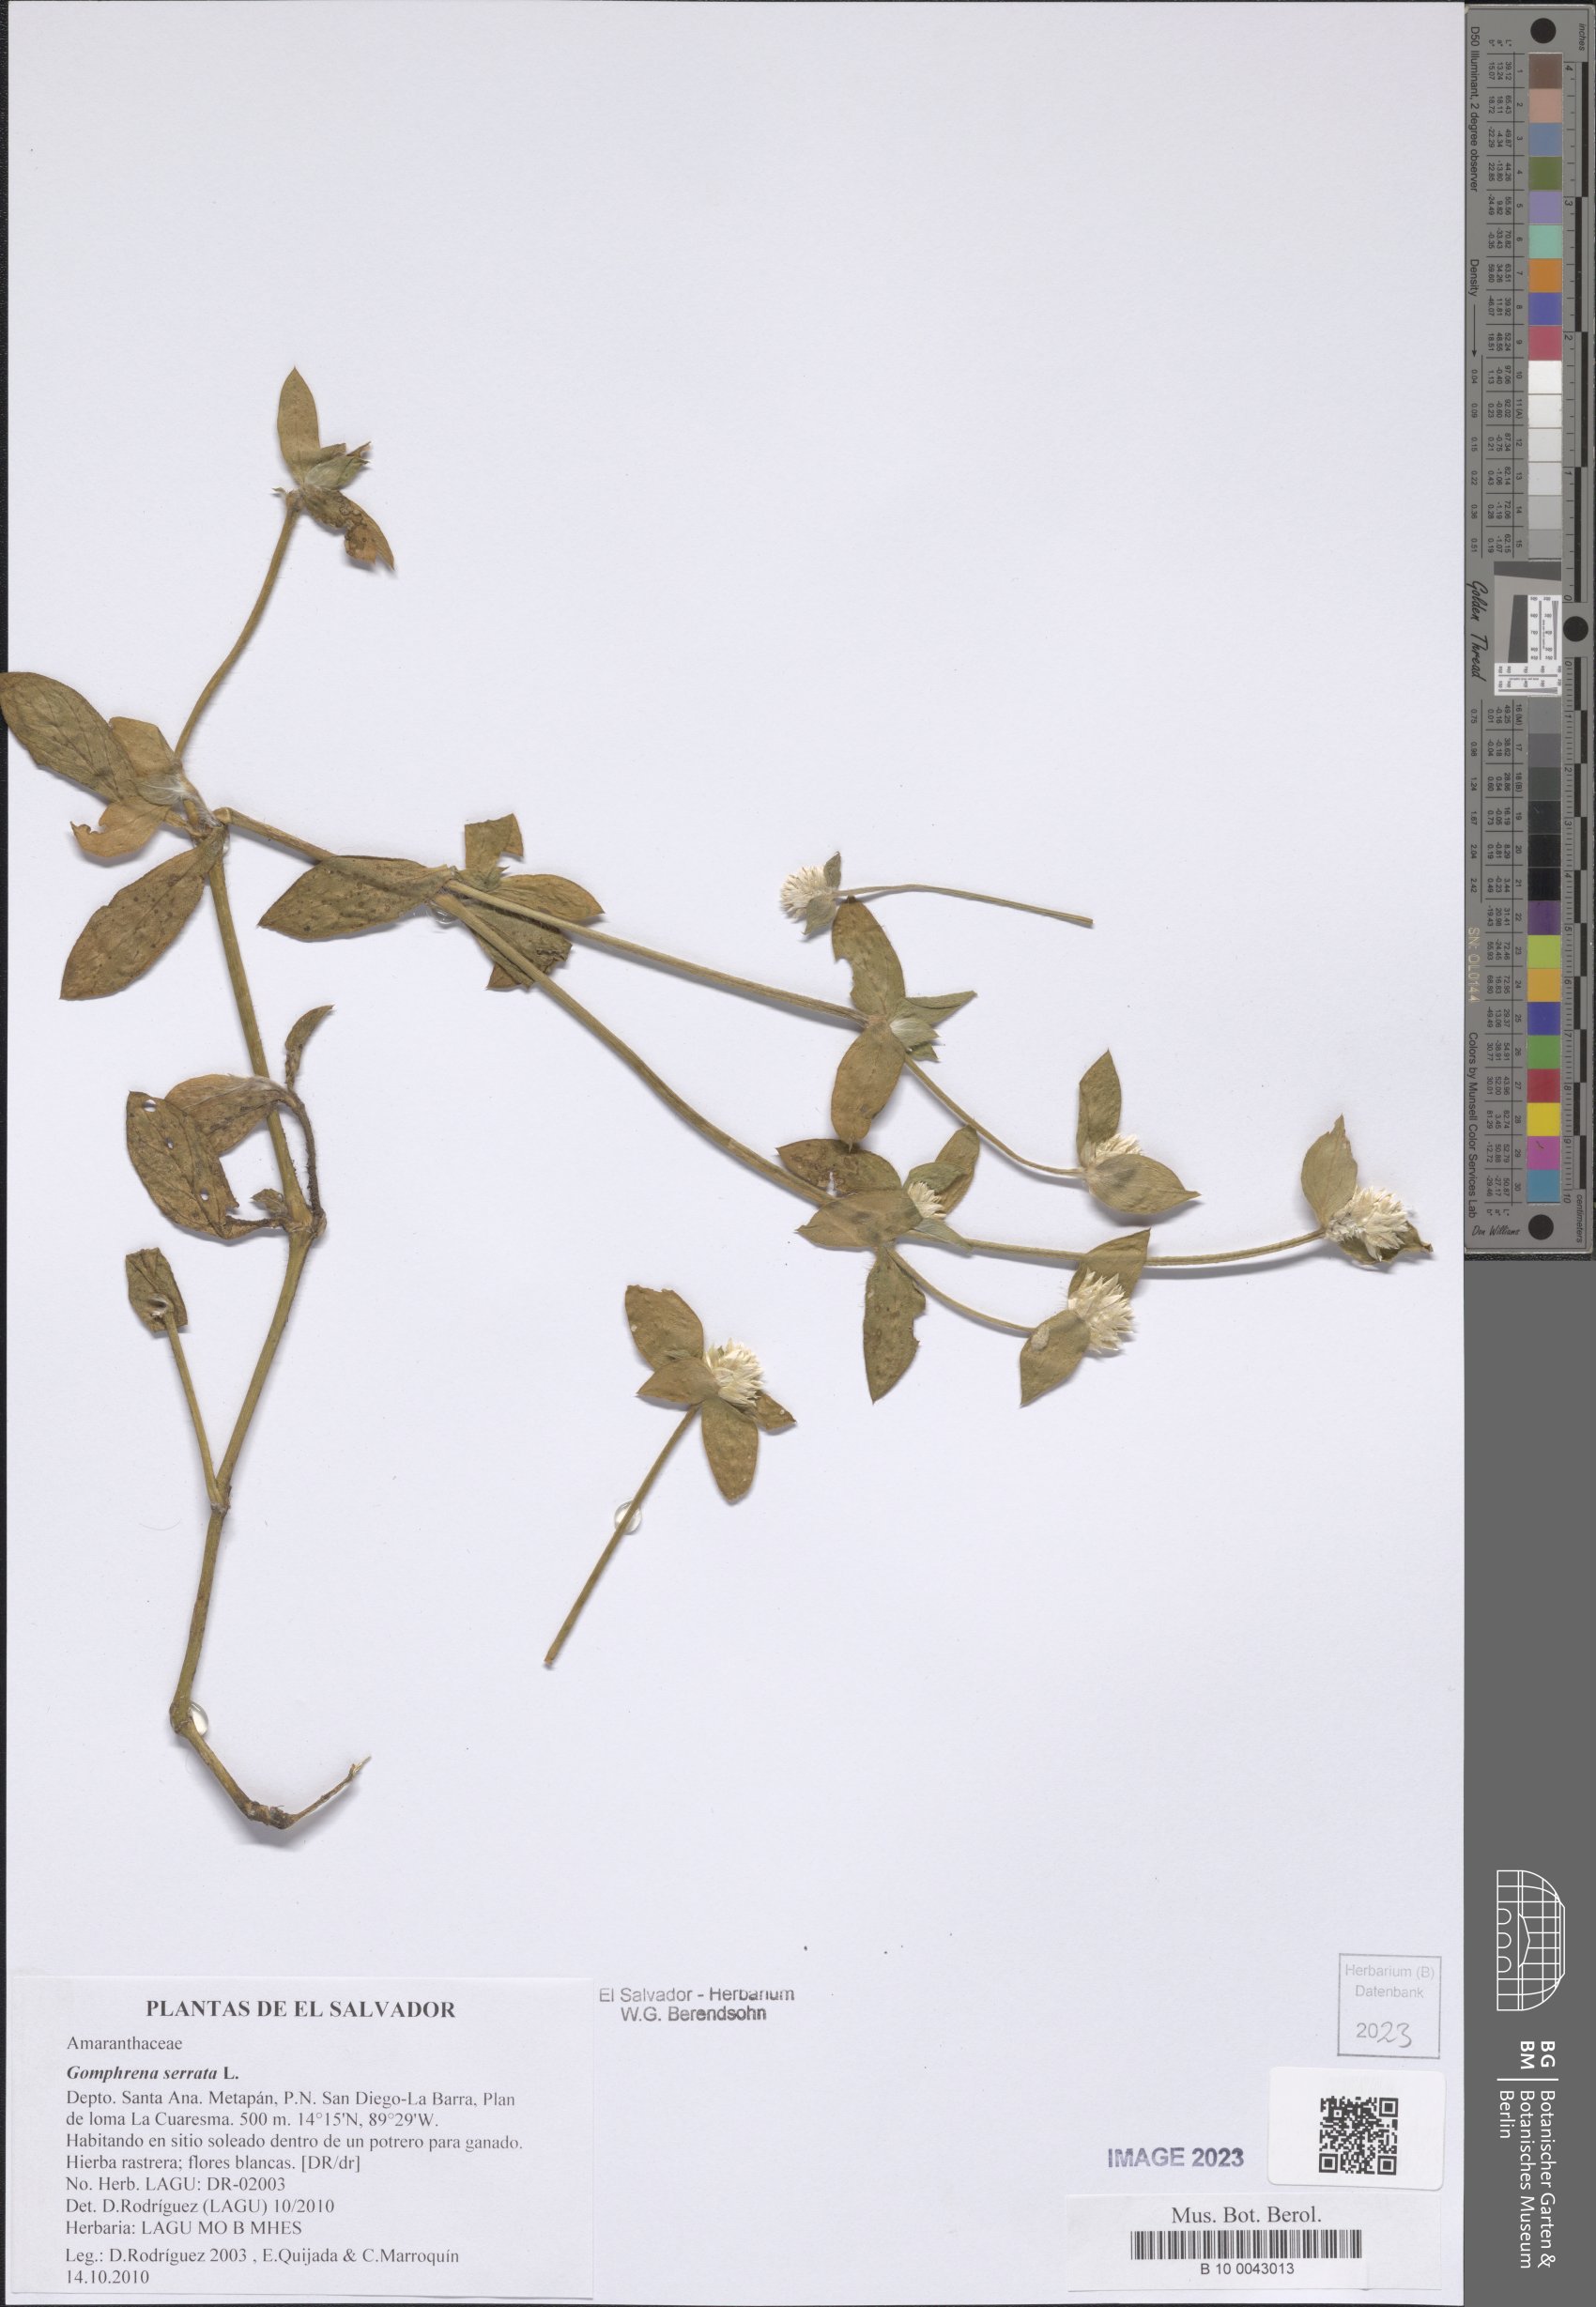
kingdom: Plantae
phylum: Tracheophyta
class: Magnoliopsida
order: Caryophyllales
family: Amaranthaceae
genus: Gomphrena
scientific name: Gomphrena serrata
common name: Arrasa con todo
